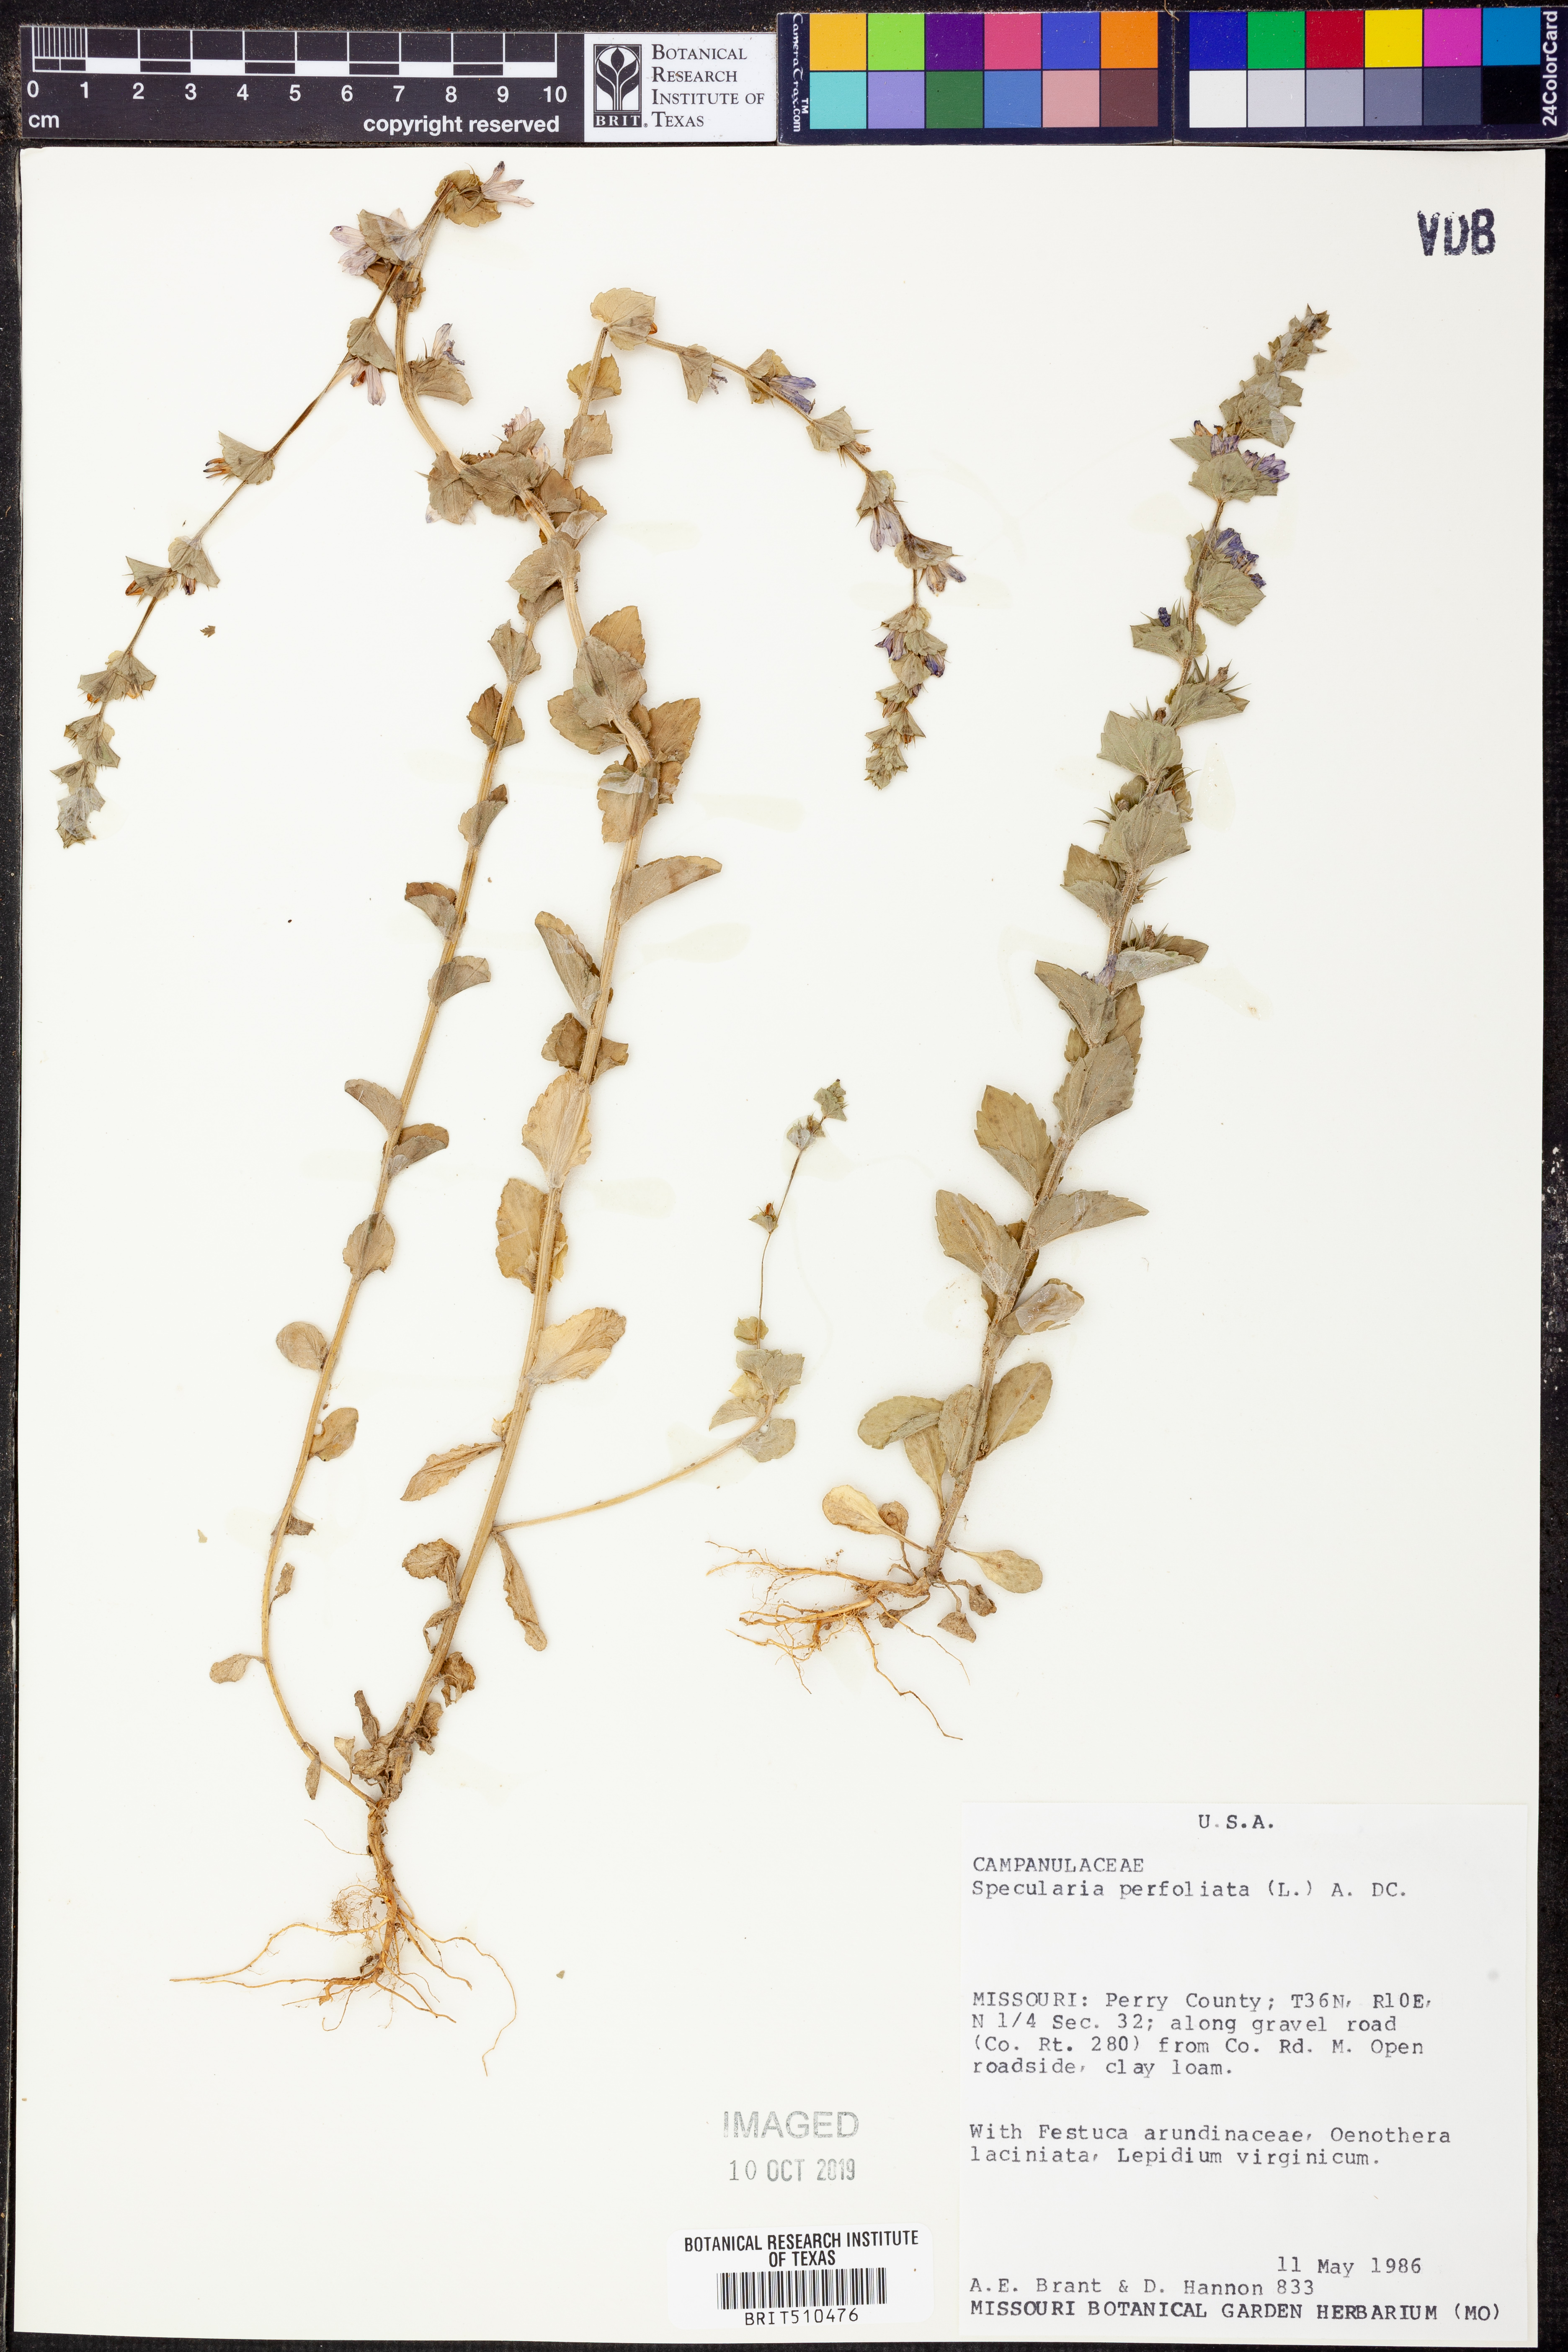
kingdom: Plantae
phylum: Tracheophyta
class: Magnoliopsida
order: Asterales
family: Campanulaceae
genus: Triodanis
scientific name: Triodanis perfoliata
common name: Clasping venus' looking-glass
